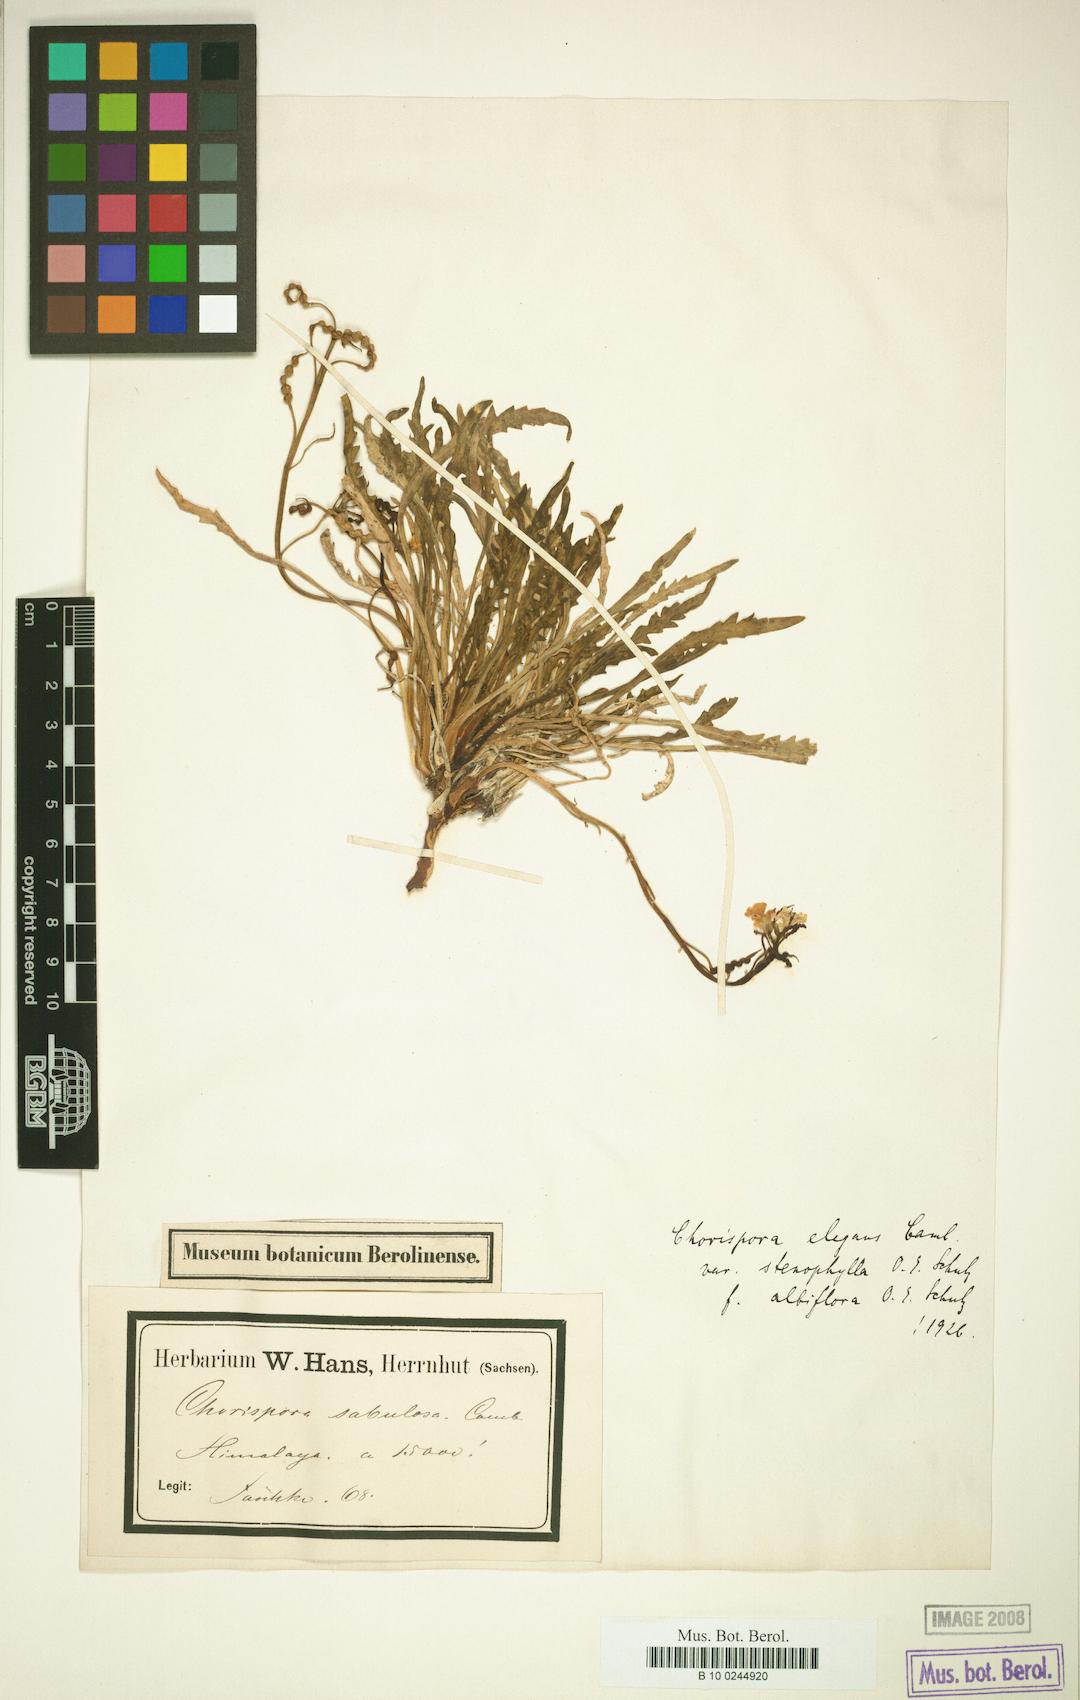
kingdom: Plantae
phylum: Tracheophyta
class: Magnoliopsida
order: Brassicales
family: Brassicaceae
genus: Chorispora
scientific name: Chorispora sabulosa
